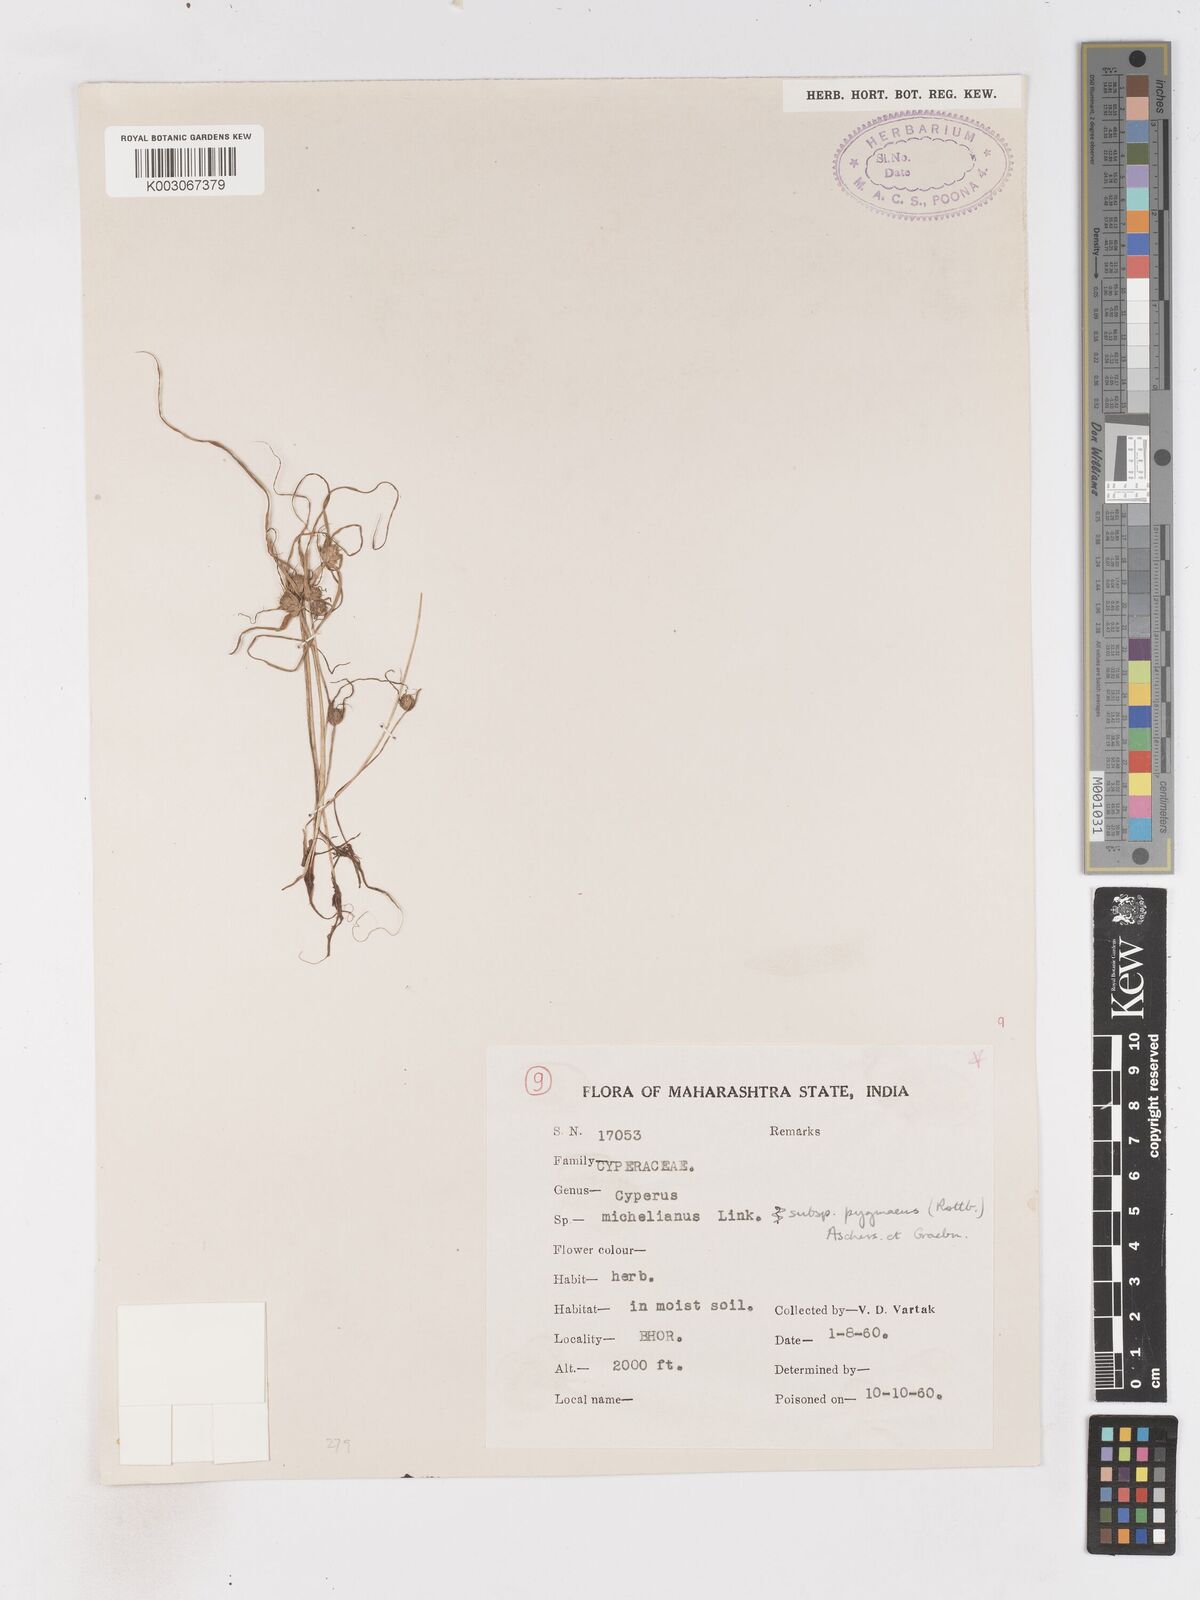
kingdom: Plantae
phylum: Tracheophyta
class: Liliopsida
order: Poales
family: Cyperaceae
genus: Cyperus
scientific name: Cyperus michelianus
